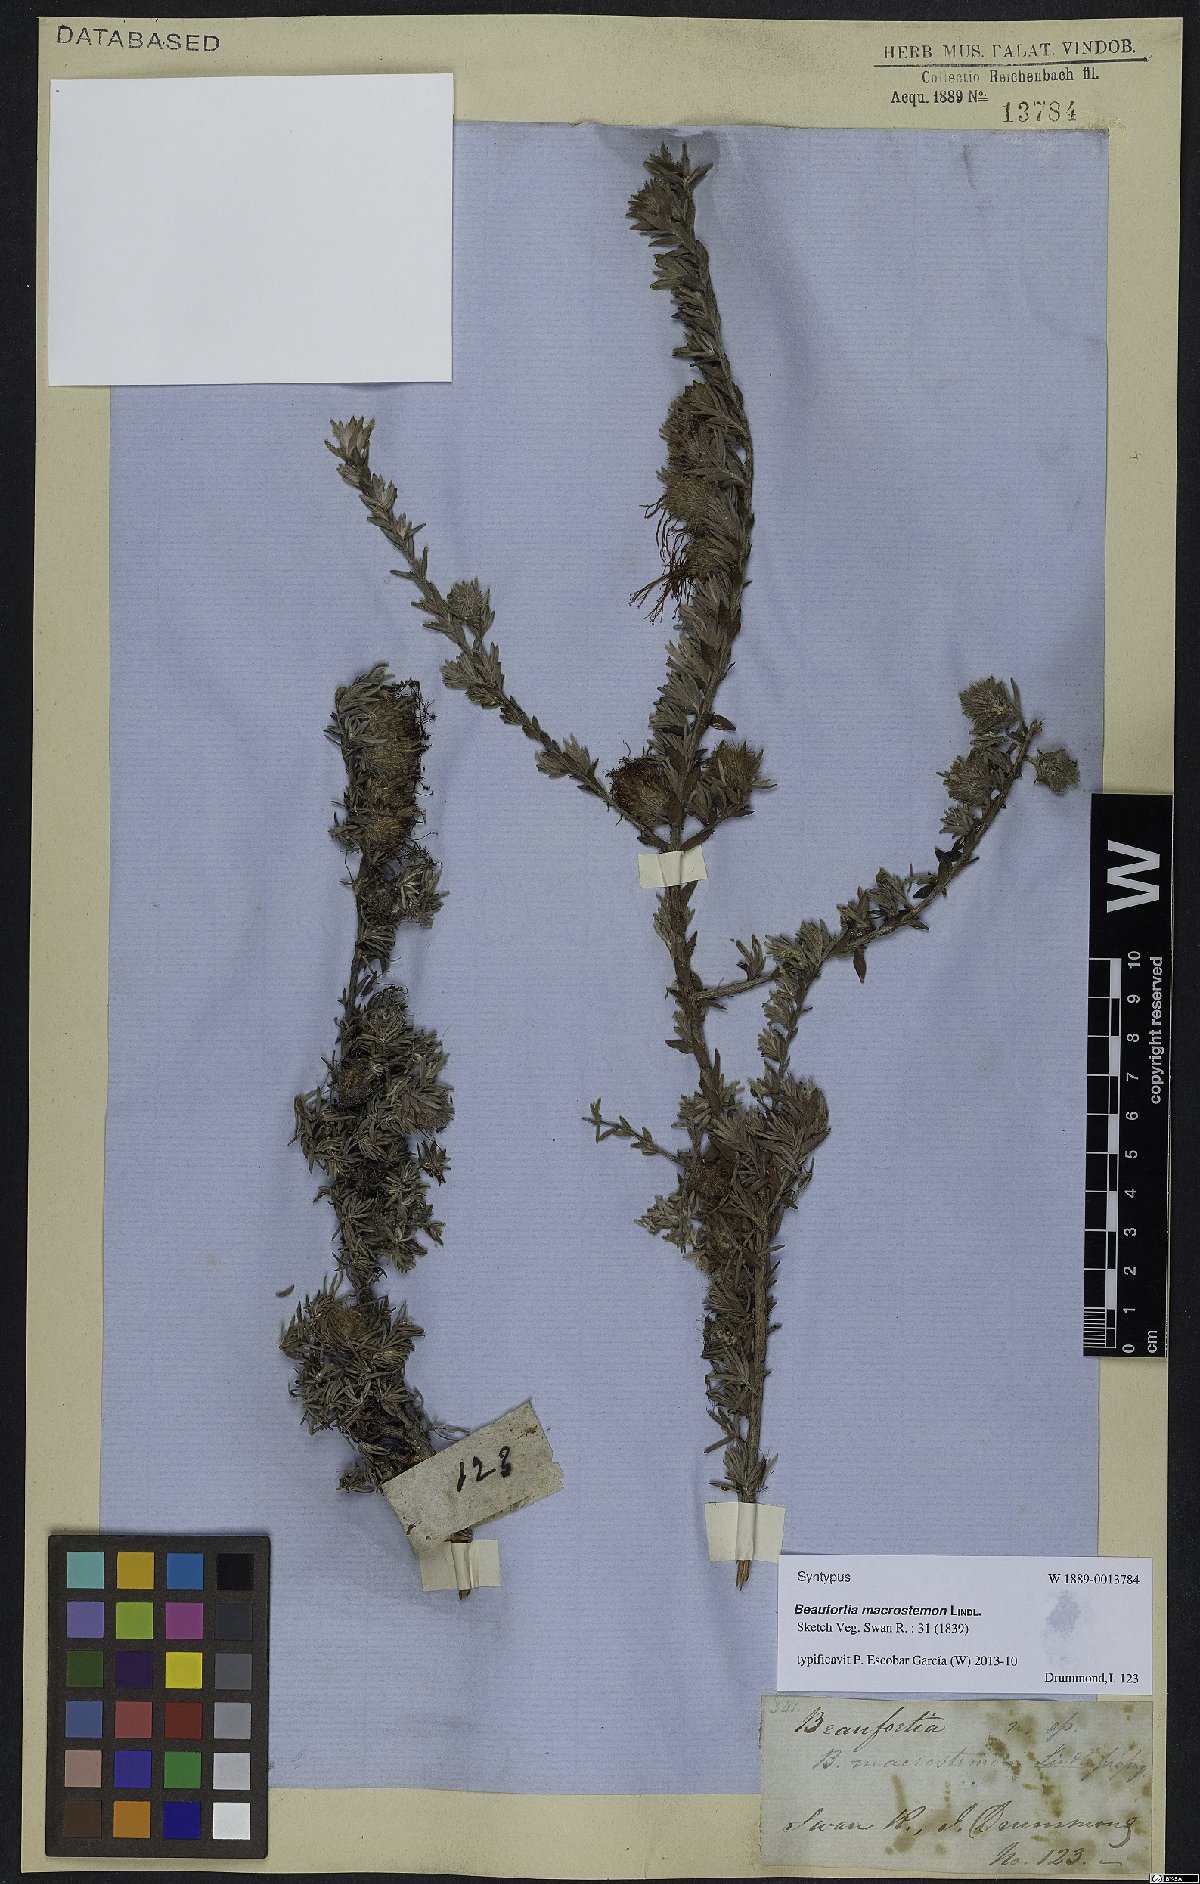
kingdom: Plantae
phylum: Tracheophyta
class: Magnoliopsida
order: Myrtales
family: Myrtaceae
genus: Melaleuca
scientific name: Melaleuca macrostemon
